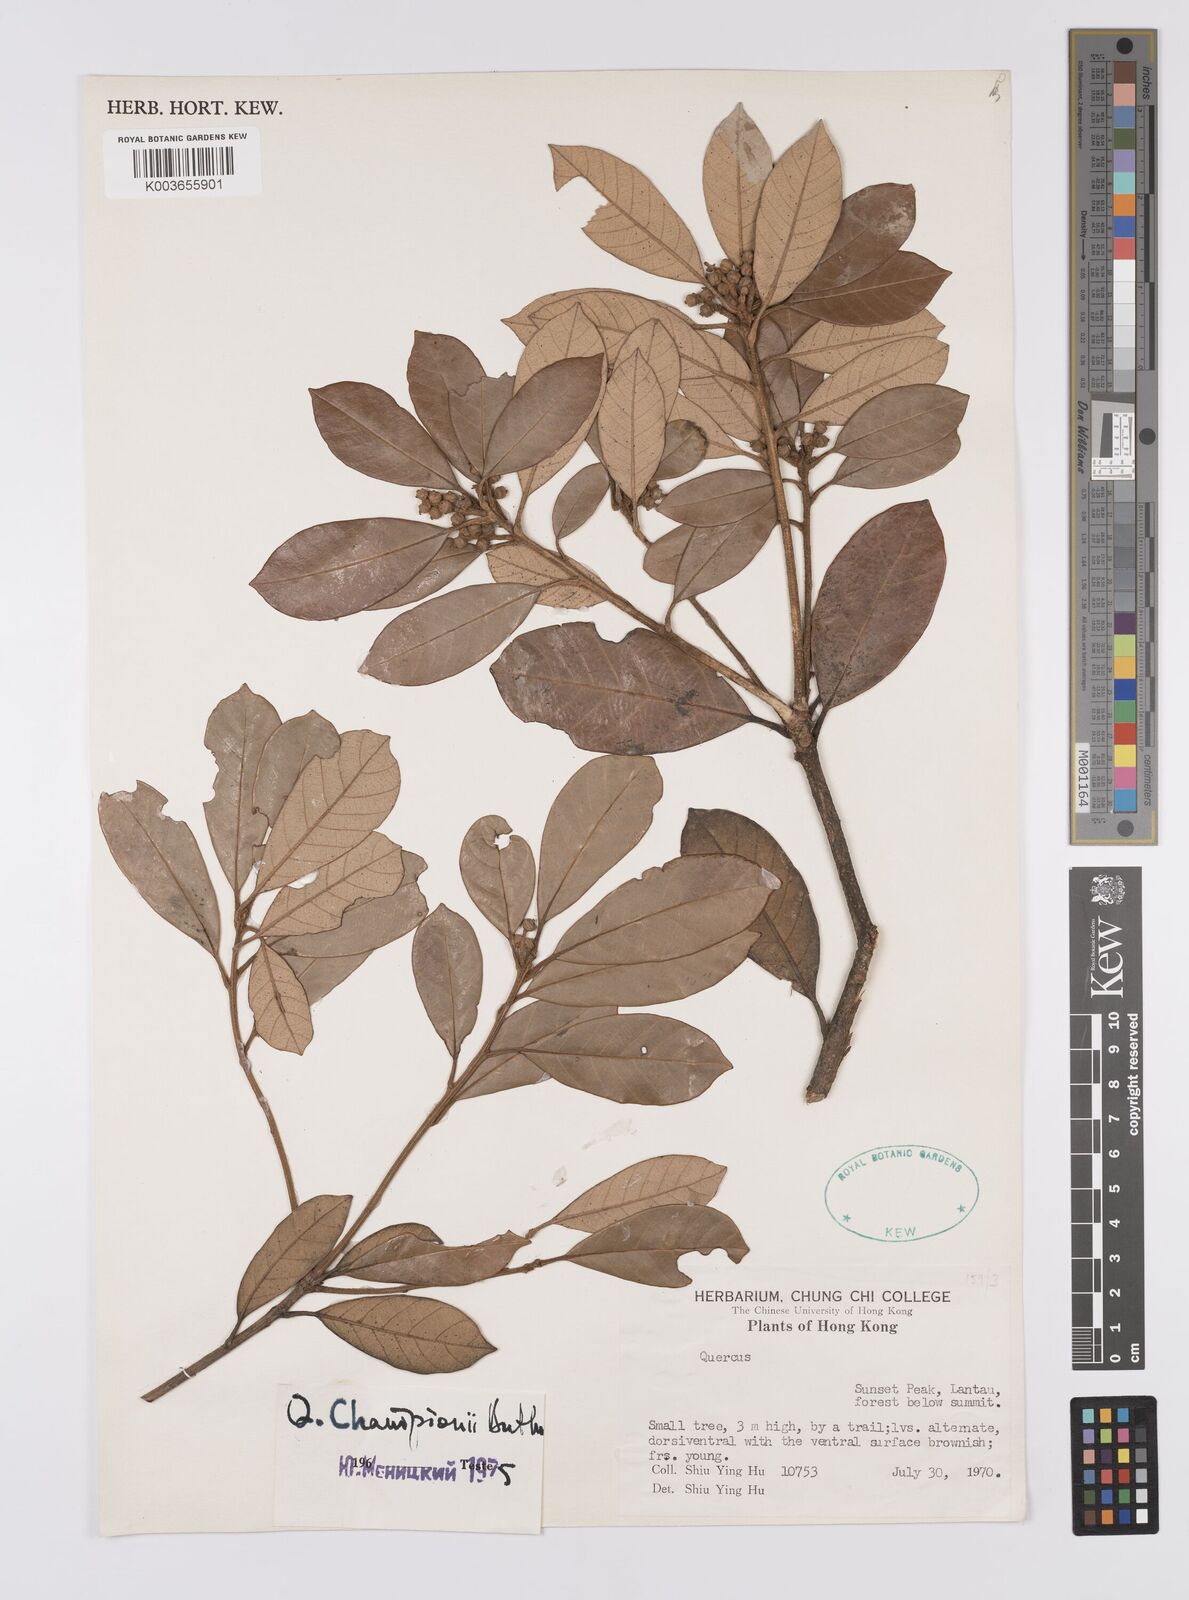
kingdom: Plantae
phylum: Tracheophyta
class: Magnoliopsida
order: Fagales
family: Fagaceae
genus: Quercus
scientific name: Quercus championii
